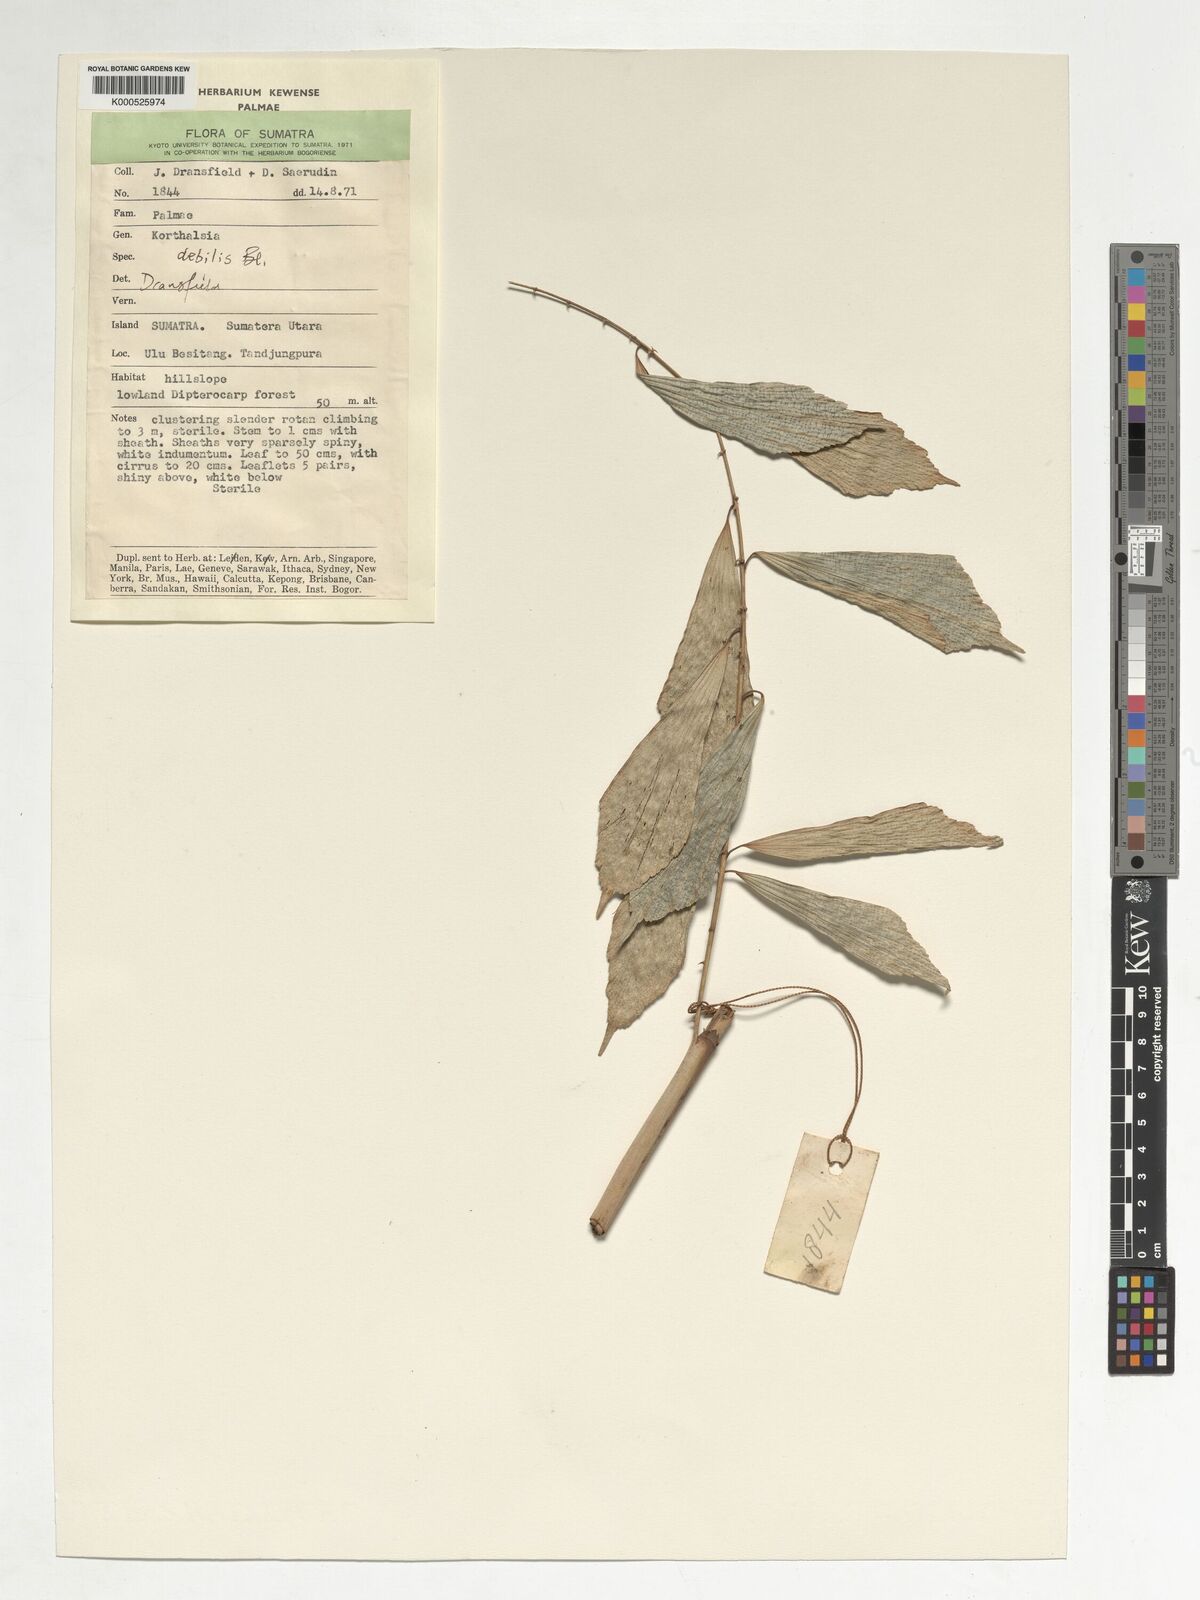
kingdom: Plantae
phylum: Tracheophyta
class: Liliopsida
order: Arecales
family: Arecaceae
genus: Korthalsia
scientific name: Korthalsia debilis
